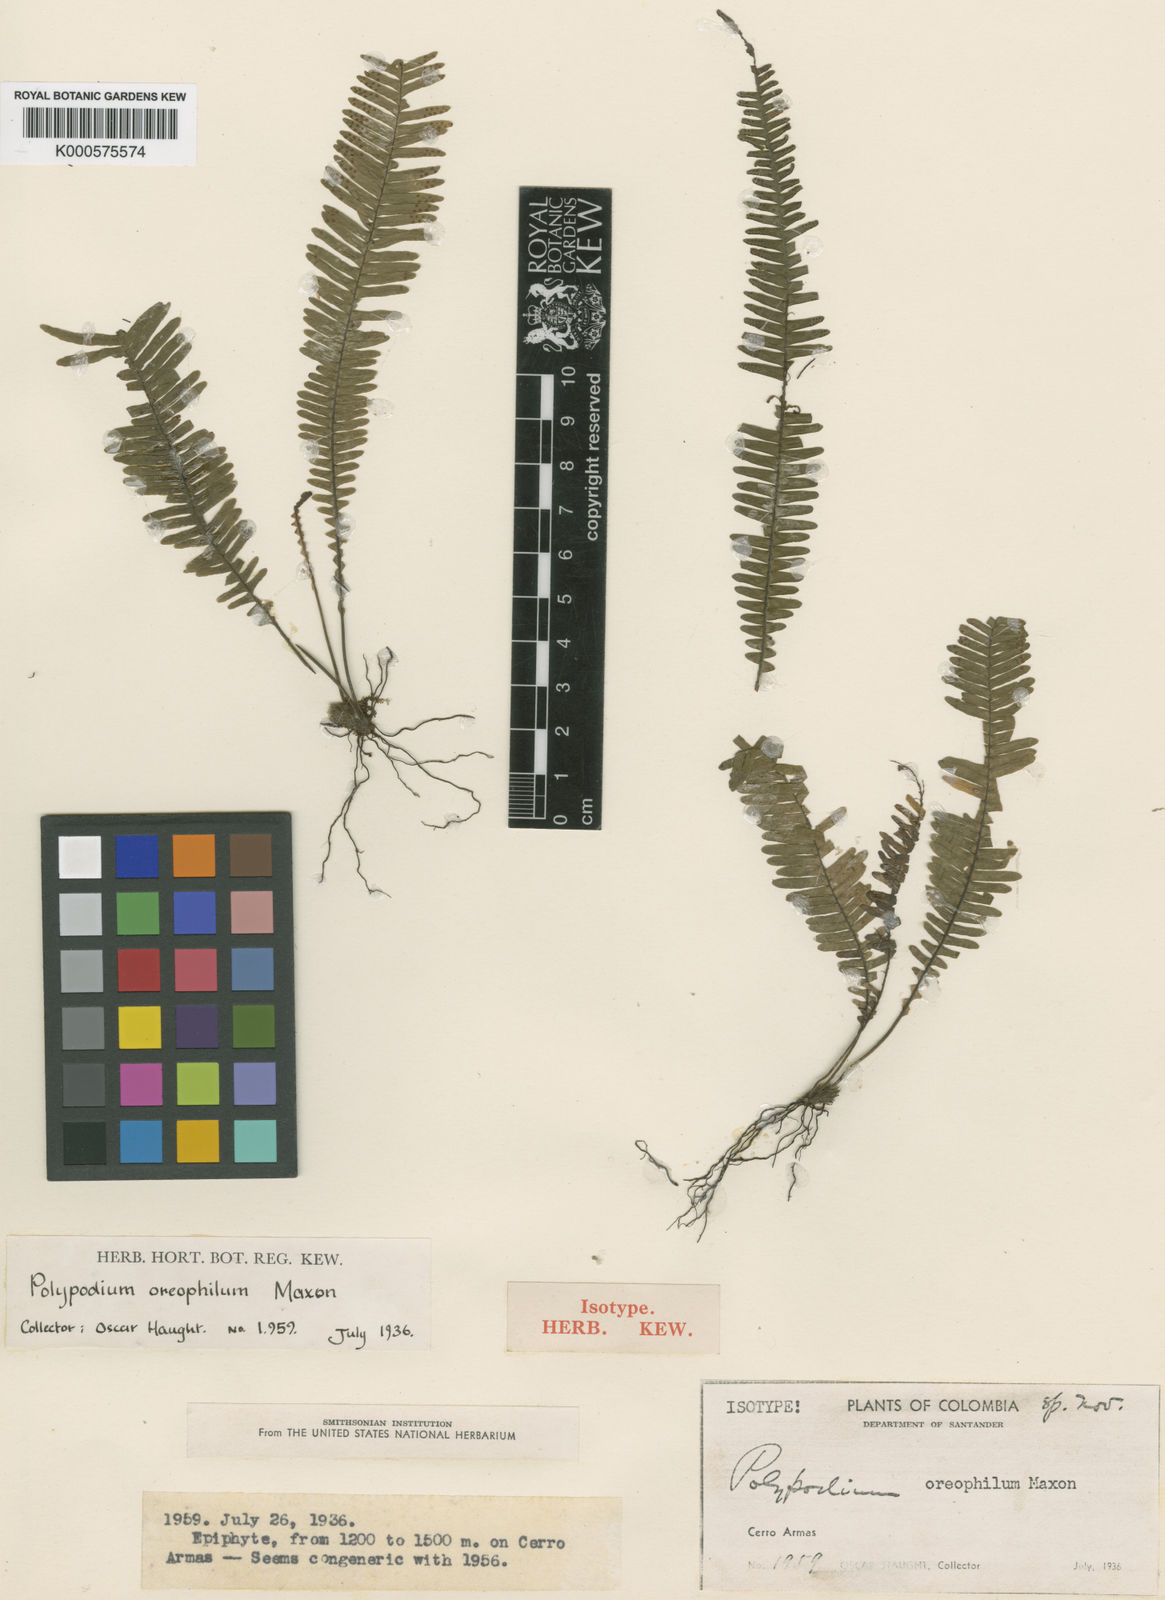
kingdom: Plantae
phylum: Tracheophyta
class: Polypodiopsida
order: Polypodiales
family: Polypodiaceae
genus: Lellingeria
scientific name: Lellingeria oreophila
